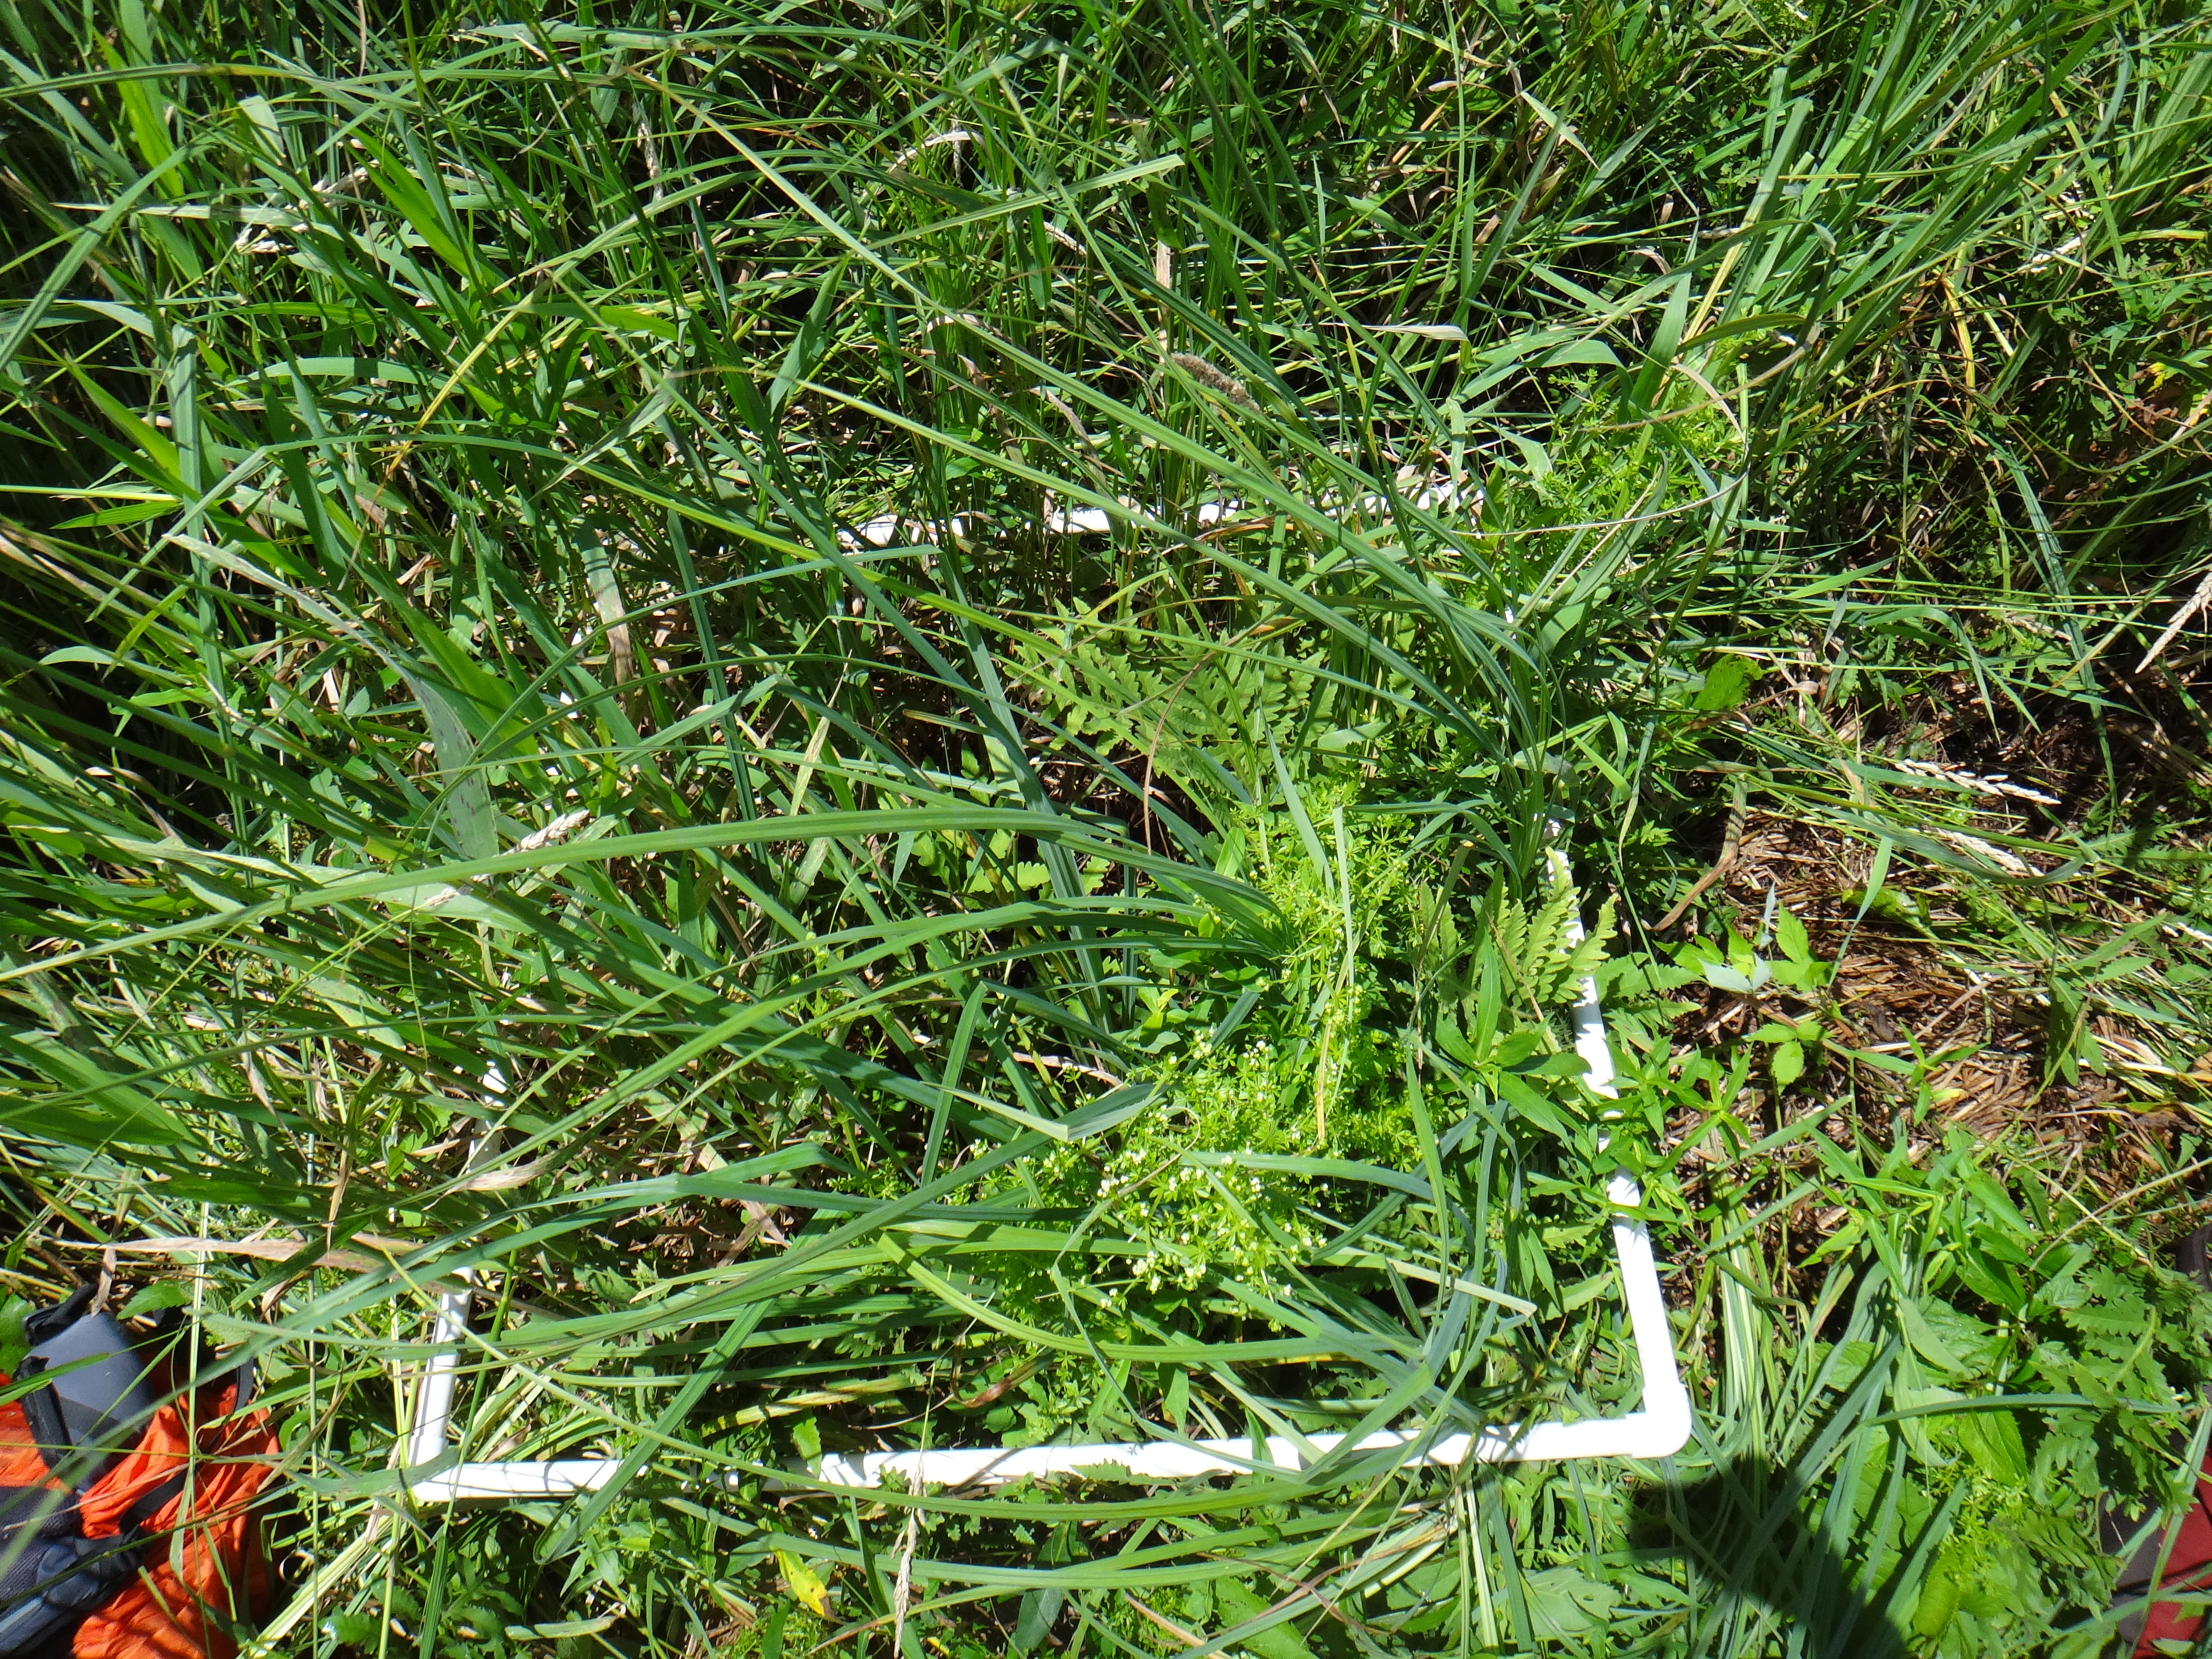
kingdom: Plantae
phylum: Tracheophyta
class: Magnoliopsida
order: Asterales
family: Asteraceae
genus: Symphyotrichum
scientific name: Symphyotrichum firmum
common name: Shining aster
